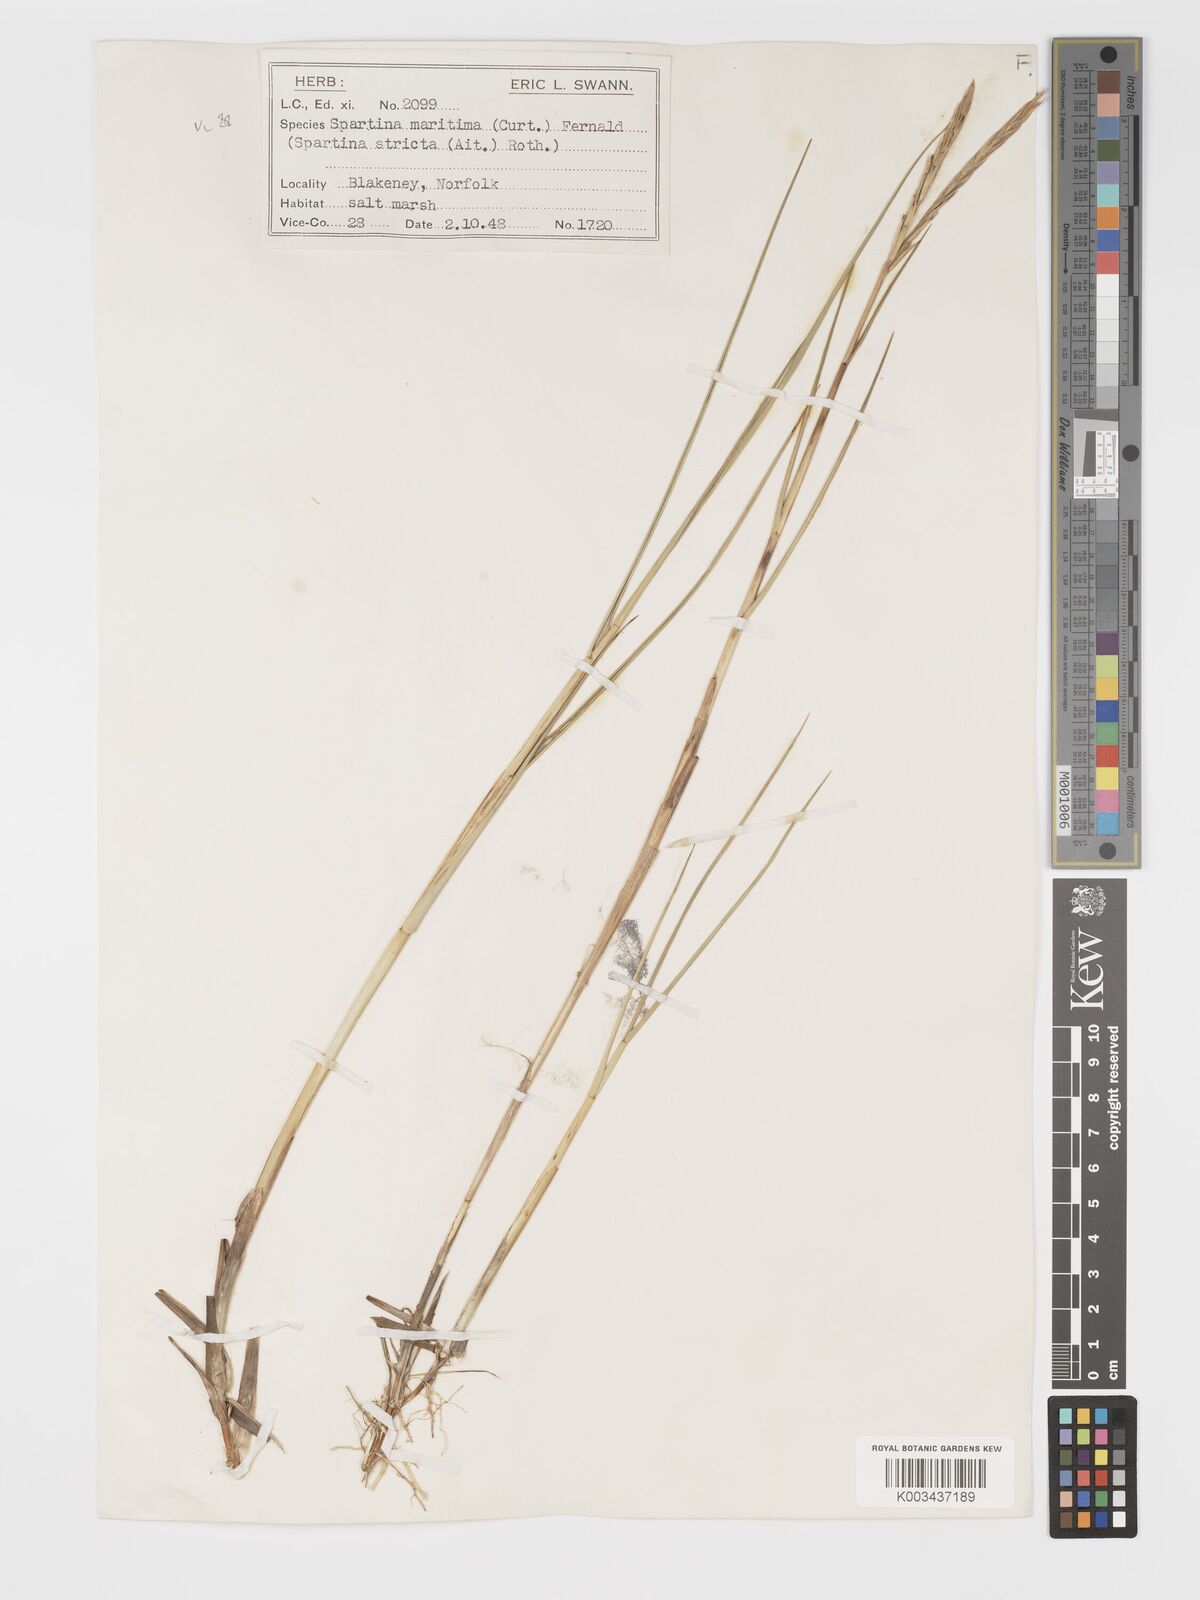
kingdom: Plantae
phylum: Tracheophyta
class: Liliopsida
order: Poales
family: Poaceae
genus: Sporobolus
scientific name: Sporobolus maritimus
